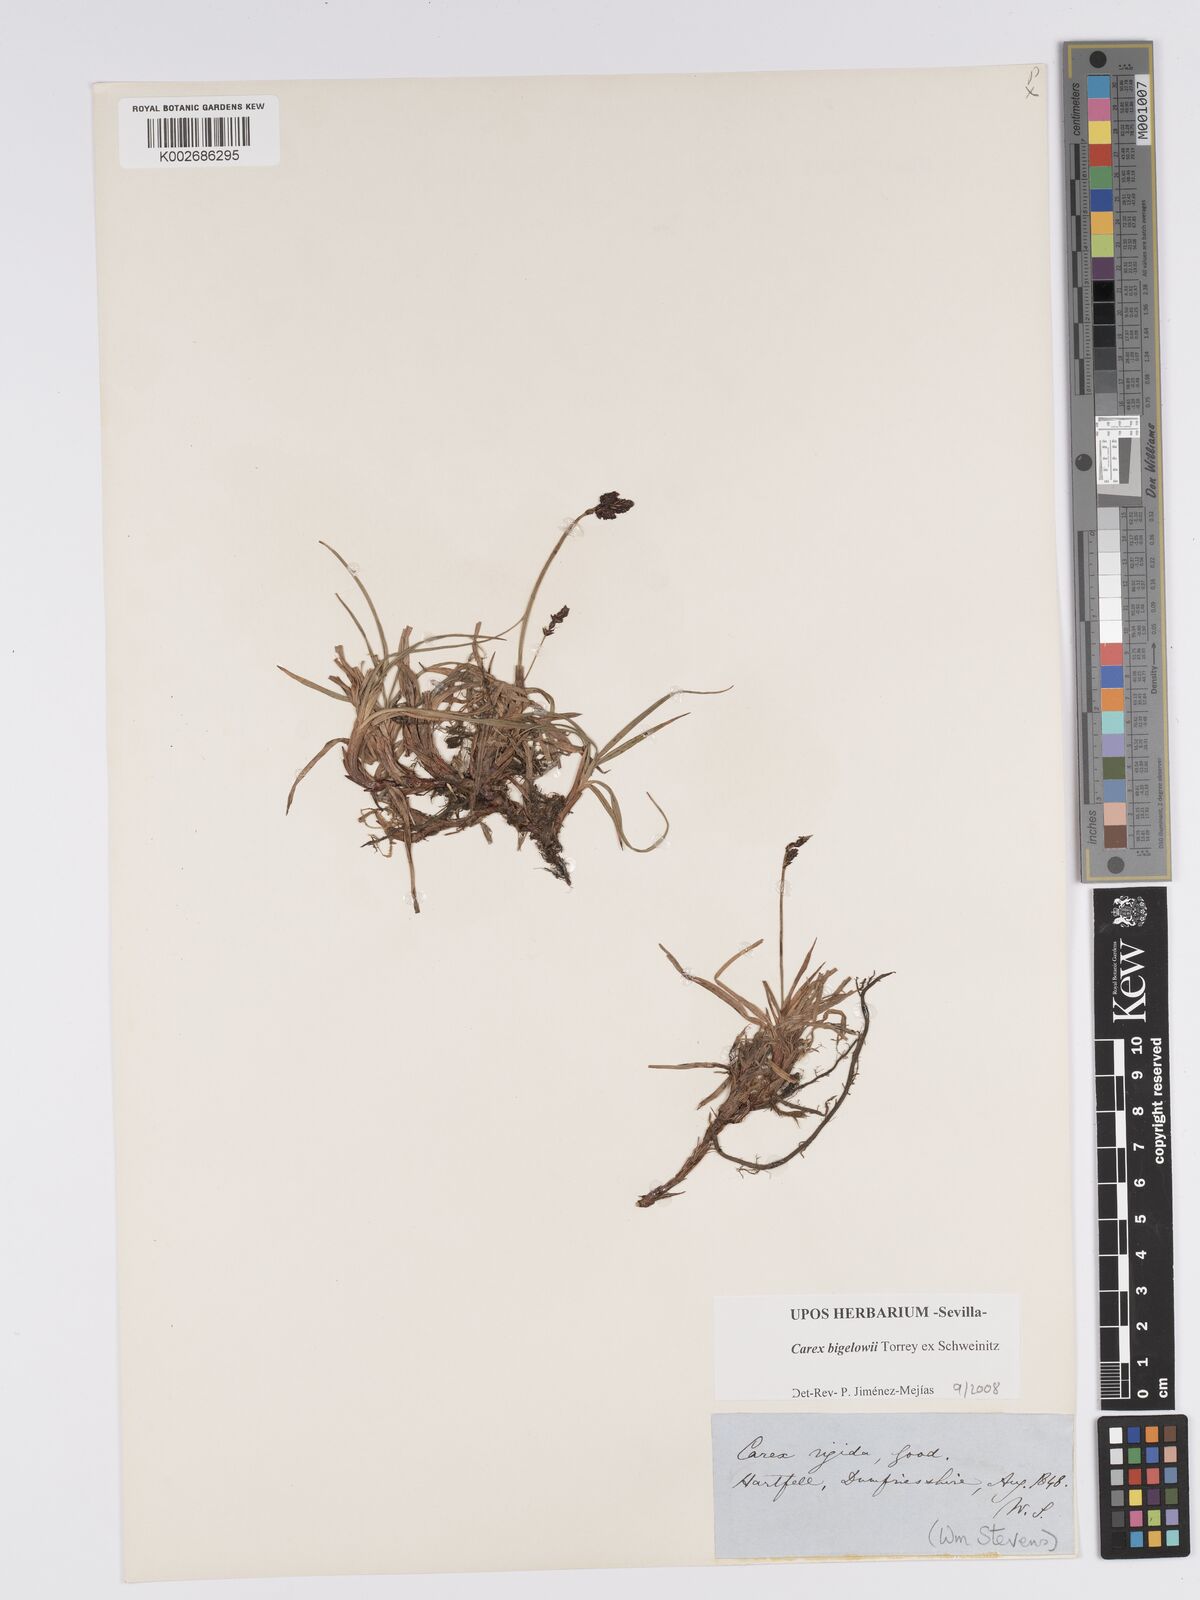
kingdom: Plantae
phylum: Tracheophyta
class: Liliopsida
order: Poales
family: Cyperaceae
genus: Carex
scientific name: Carex bigelowii
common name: Stiff sedge
